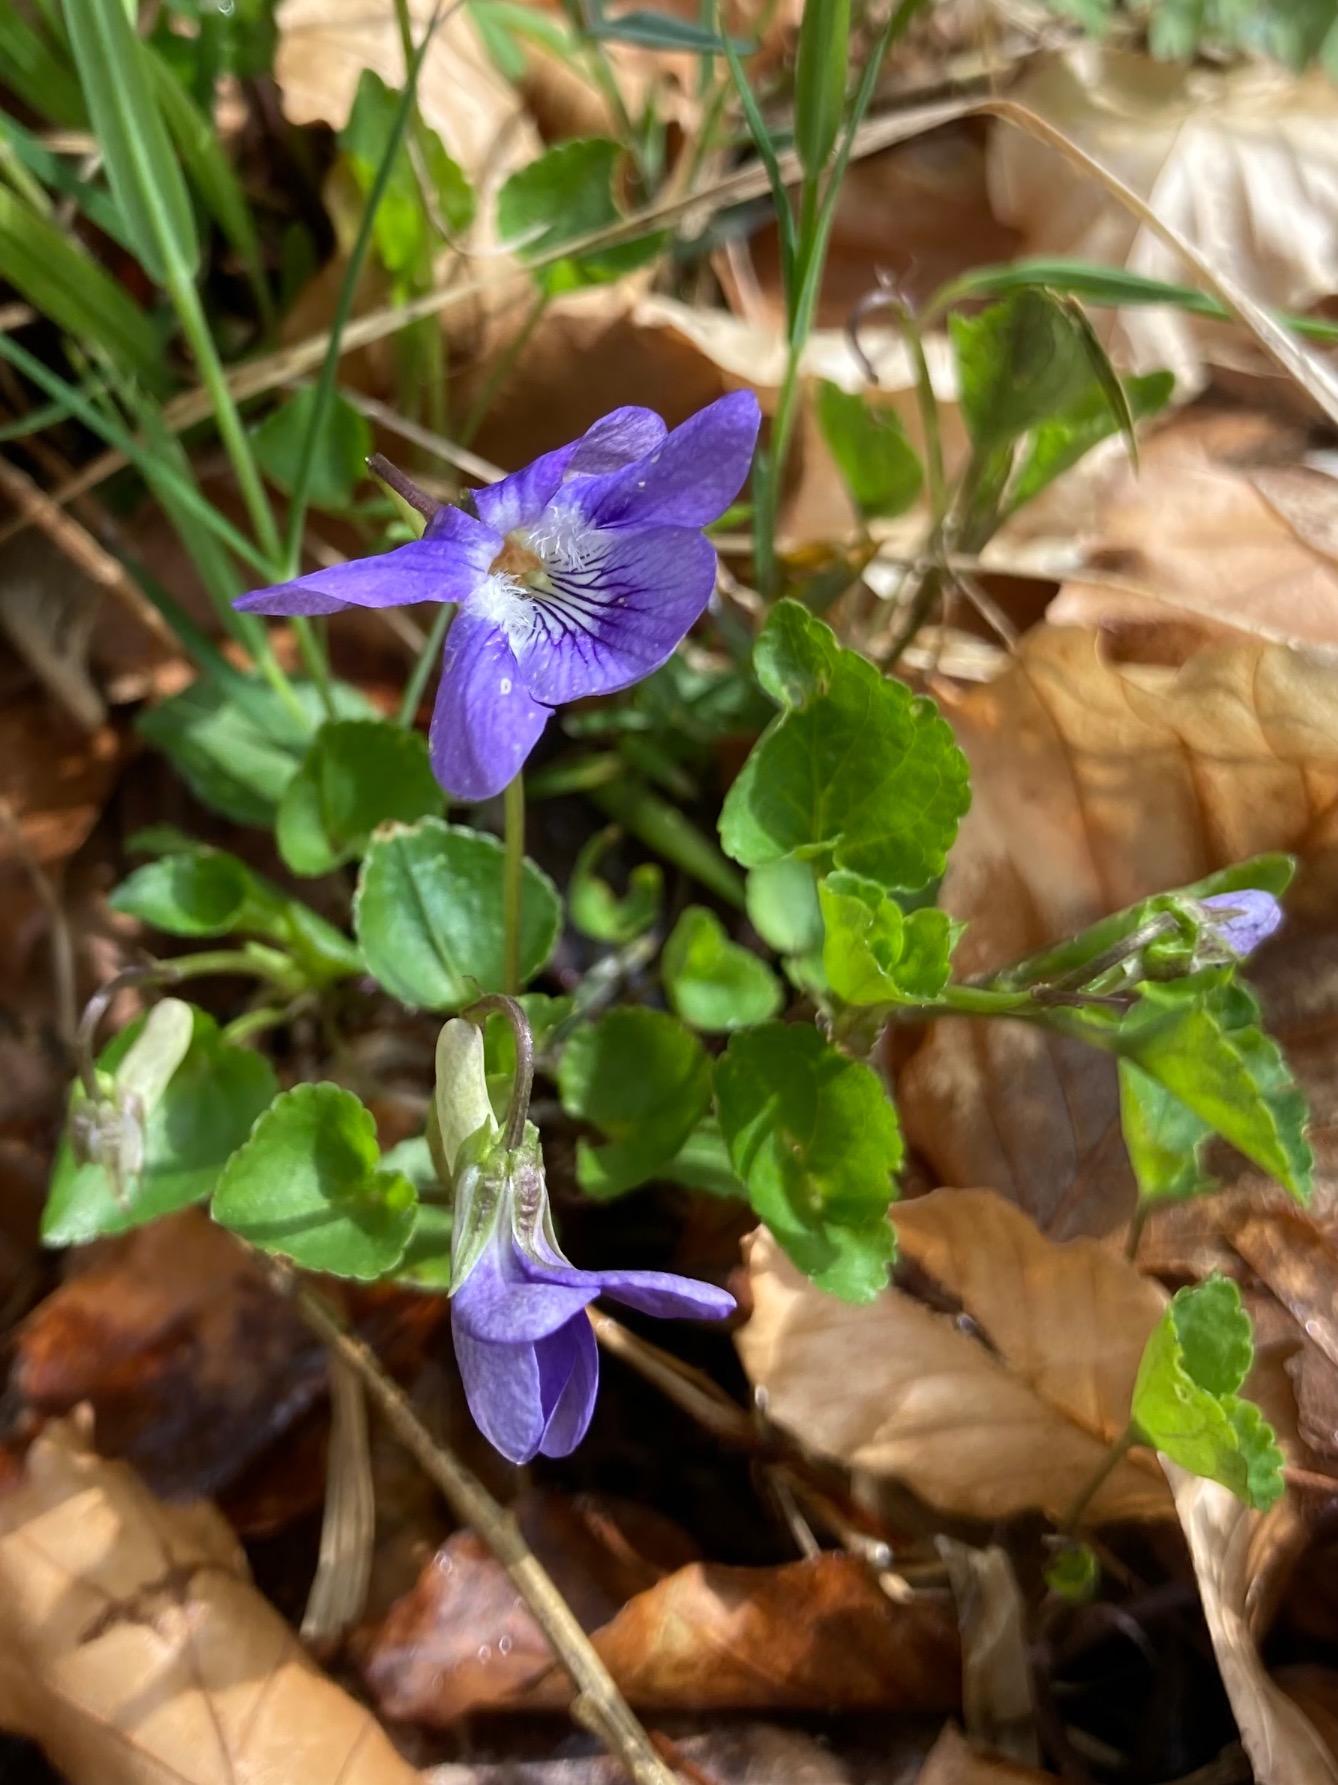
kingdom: Plantae
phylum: Tracheophyta
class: Magnoliopsida
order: Malpighiales
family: Violaceae
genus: Viola
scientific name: Viola riviniana
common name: Krat-viol
